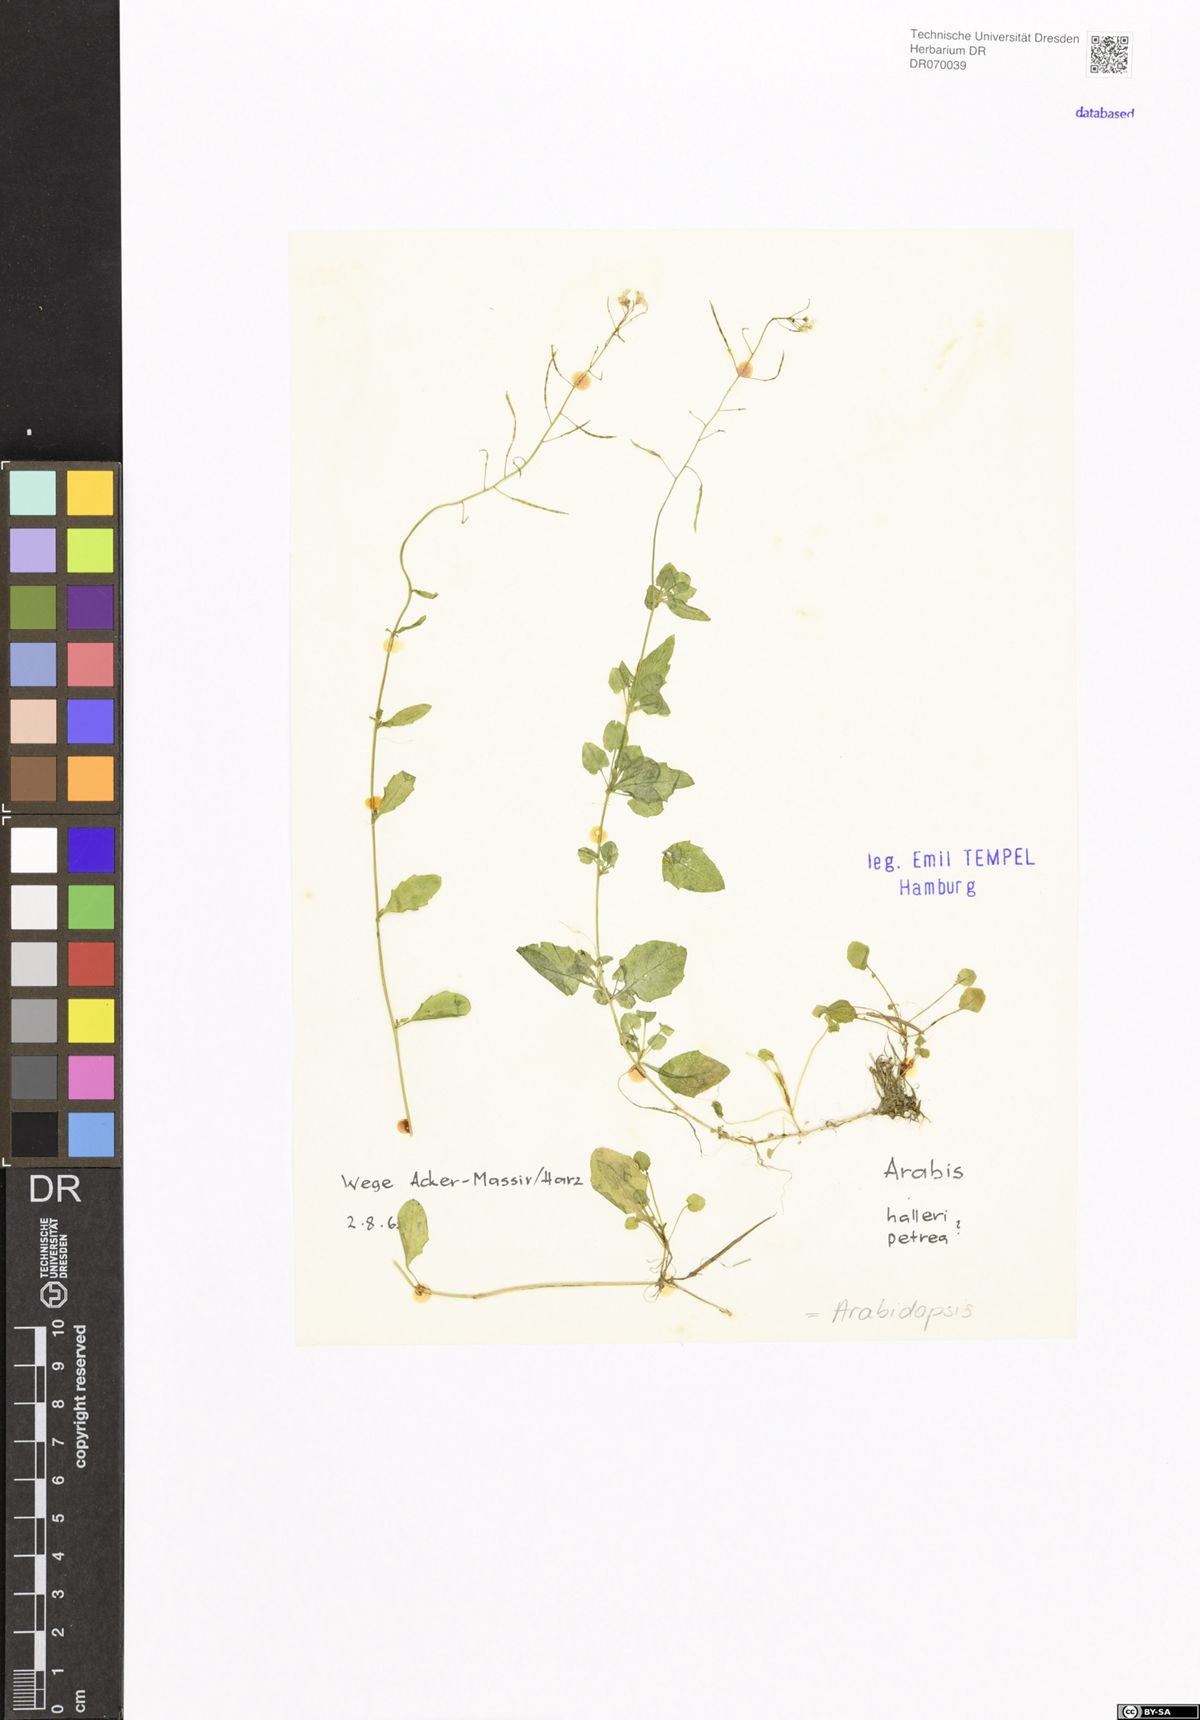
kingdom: Plantae
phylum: Tracheophyta
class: Magnoliopsida
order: Brassicales
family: Brassicaceae
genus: Arabidopsis
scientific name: Arabidopsis
